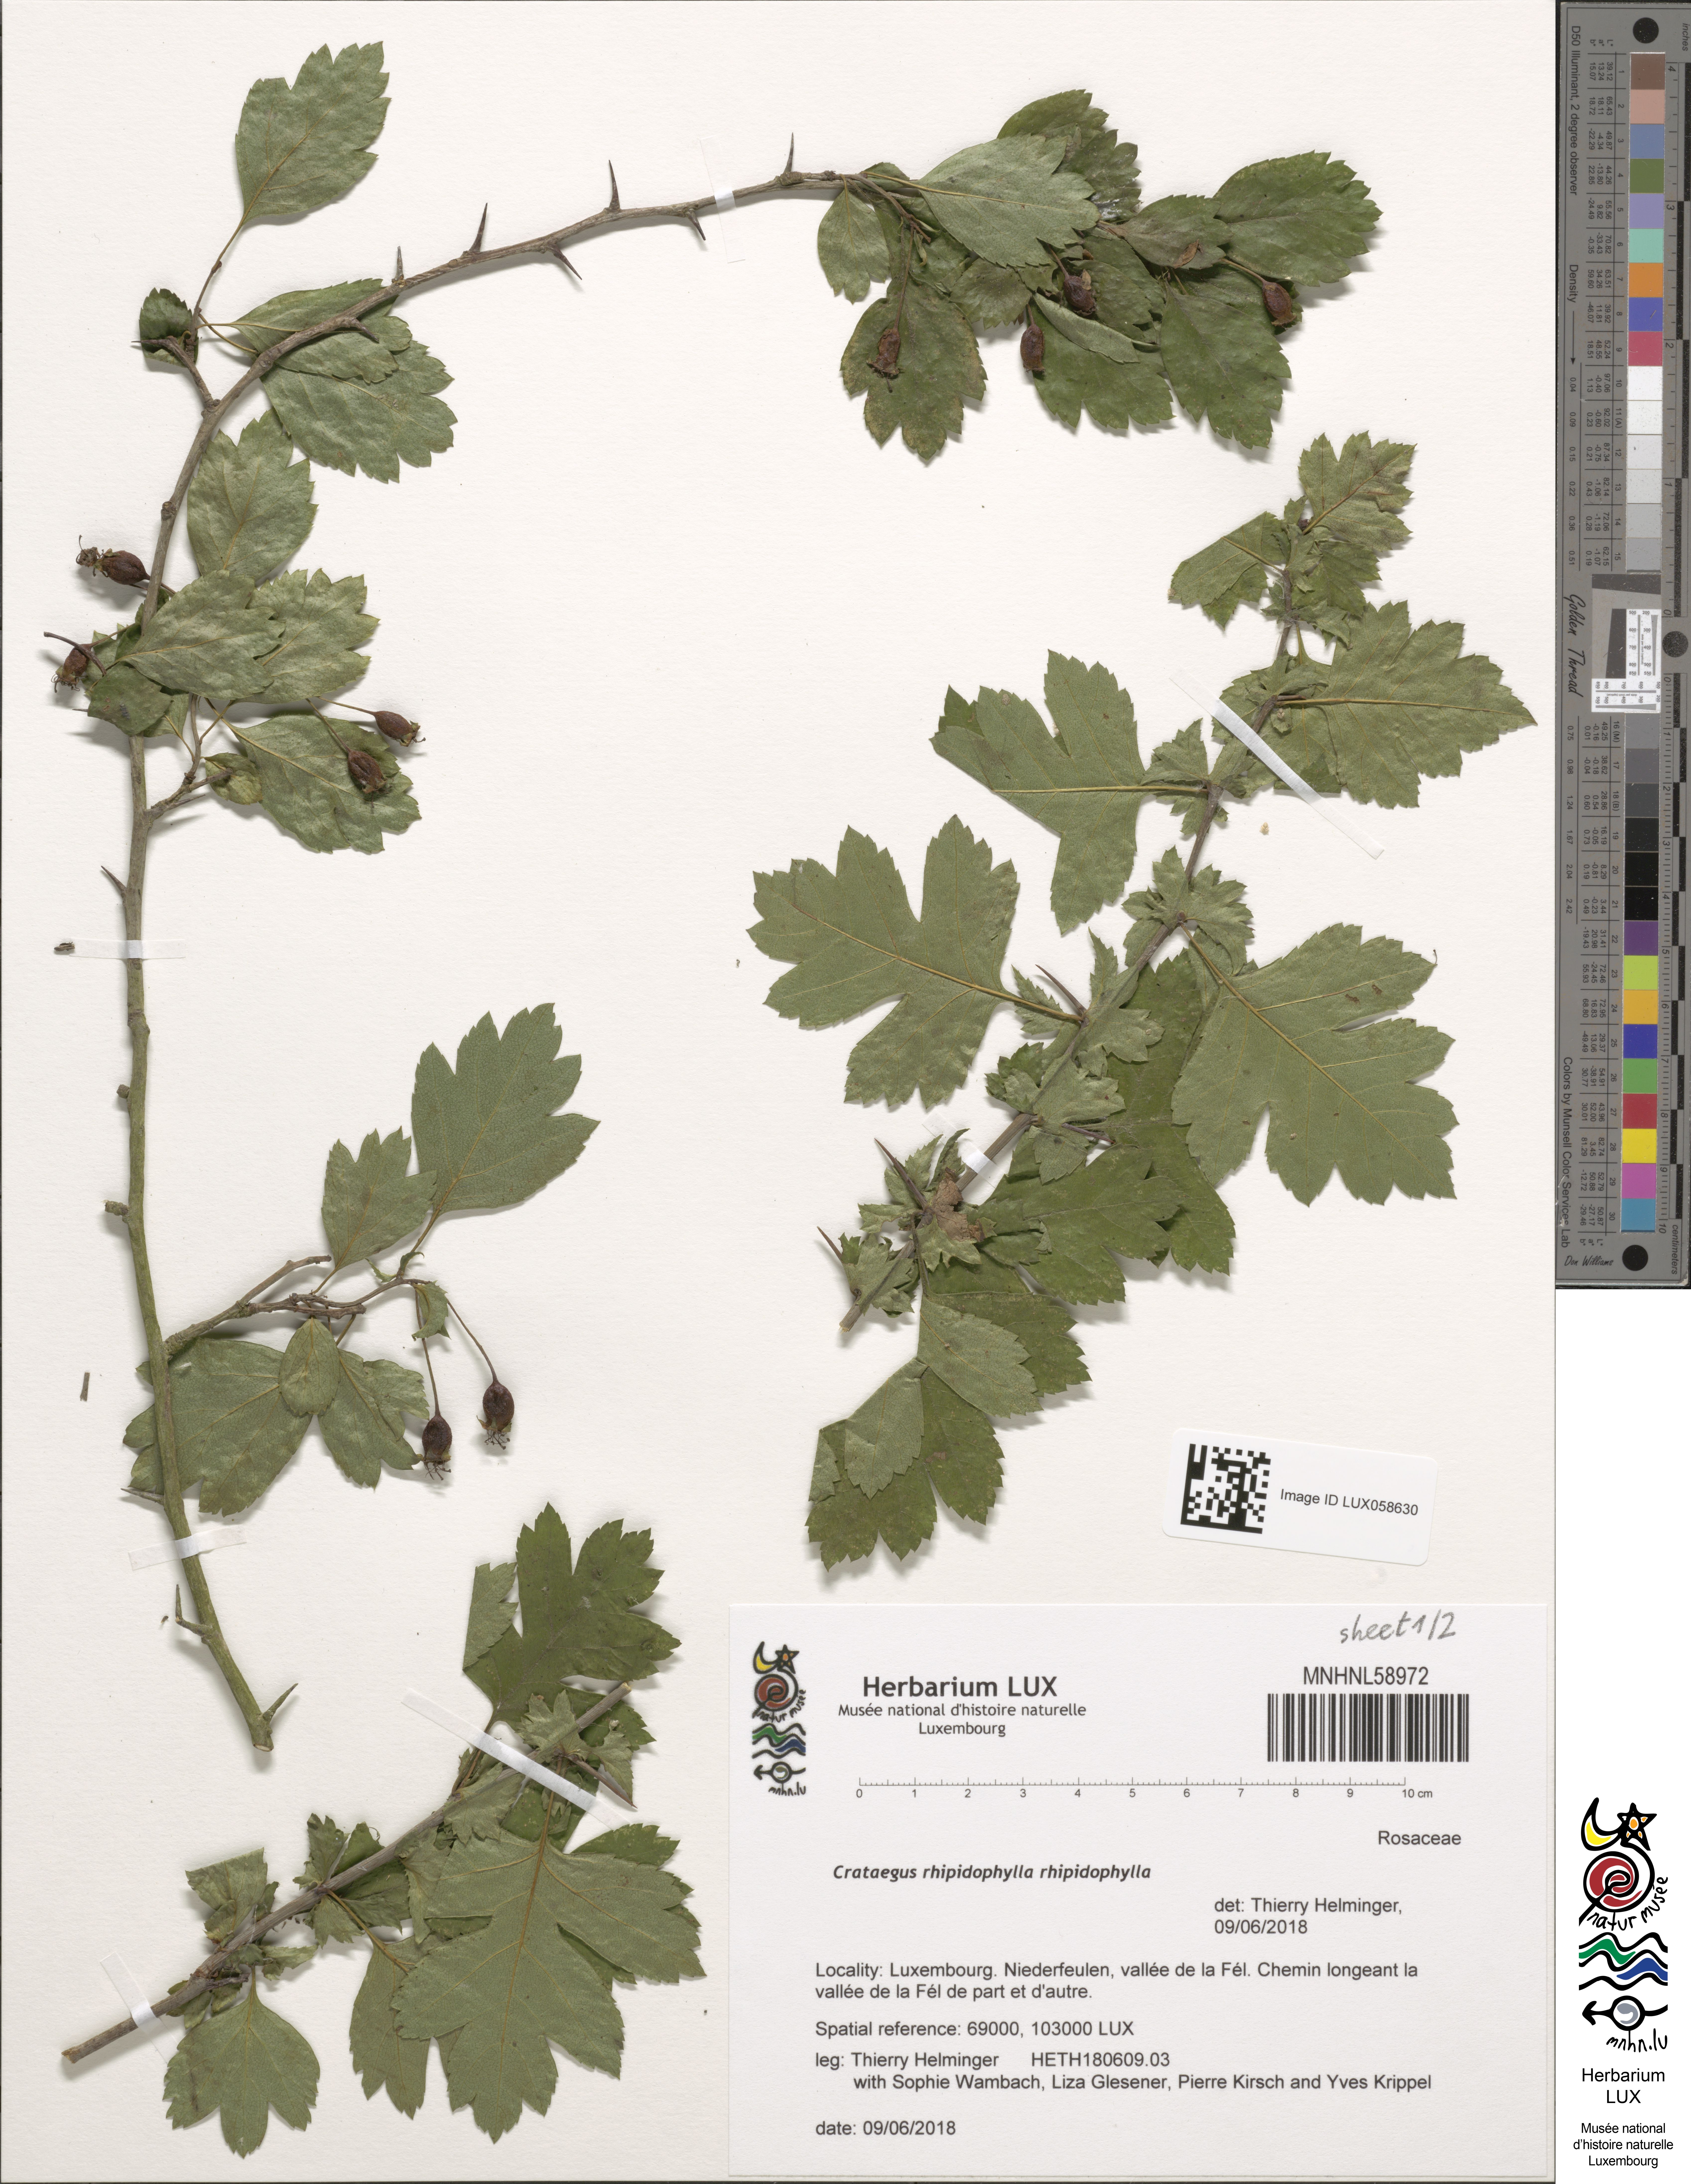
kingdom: Plantae
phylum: Tracheophyta
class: Magnoliopsida
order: Rosales
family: Rosaceae
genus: Crataegus
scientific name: Crataegus rhipidophylla
